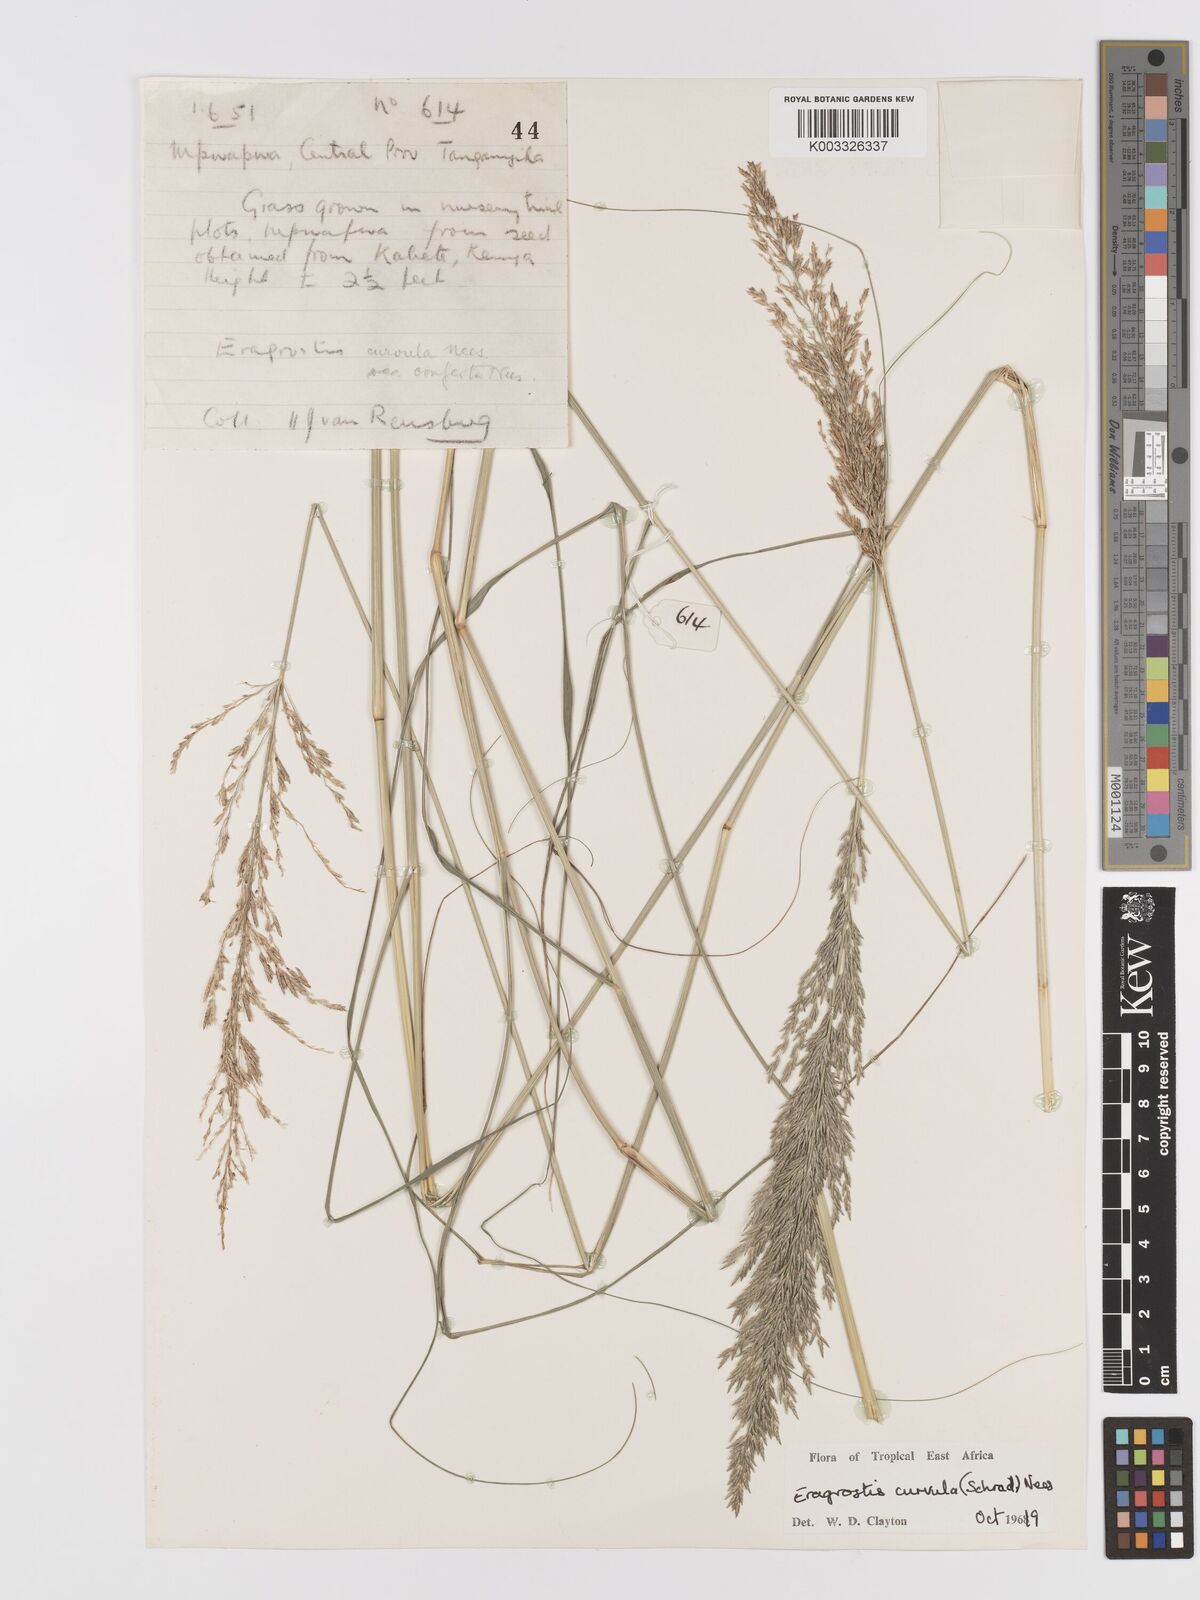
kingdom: Plantae
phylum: Tracheophyta
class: Liliopsida
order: Poales
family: Poaceae
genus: Eragrostis
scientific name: Eragrostis curvula
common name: African love-grass
